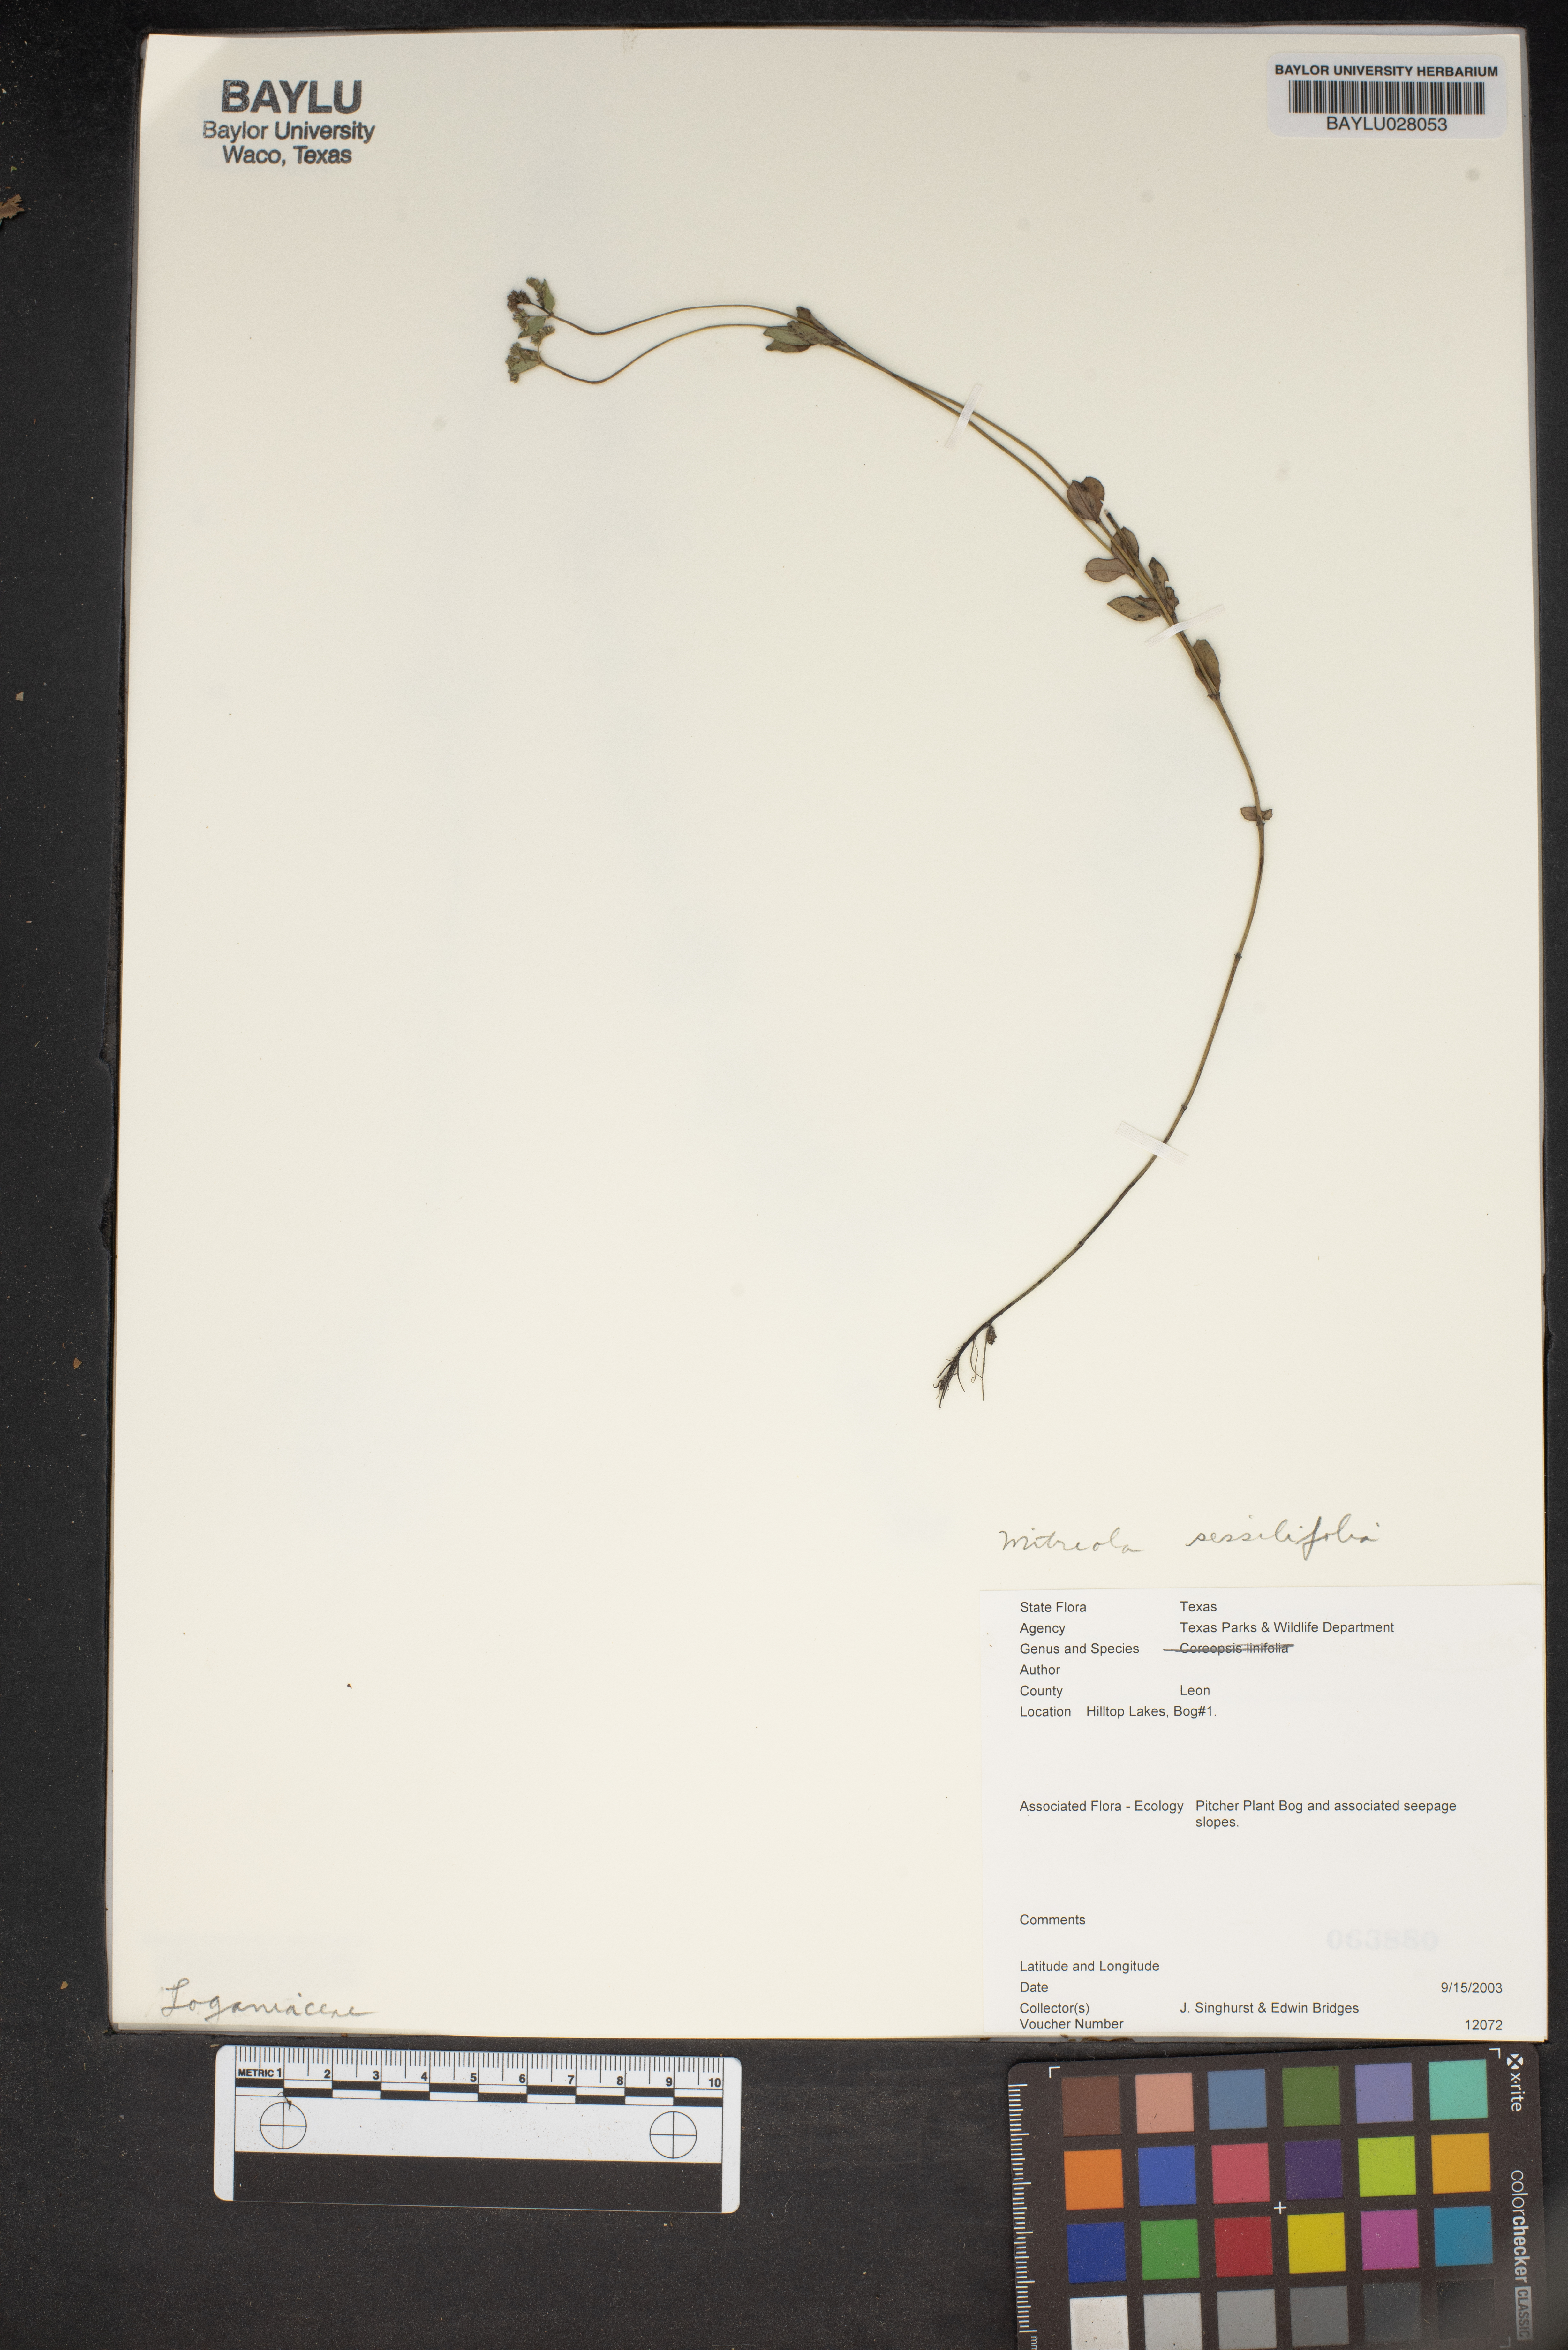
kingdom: Plantae
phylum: Tracheophyta
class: Magnoliopsida
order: Gentianales
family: Loganiaceae
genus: Mitreola
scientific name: Mitreola sessilifolia
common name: Swamp hornpod
